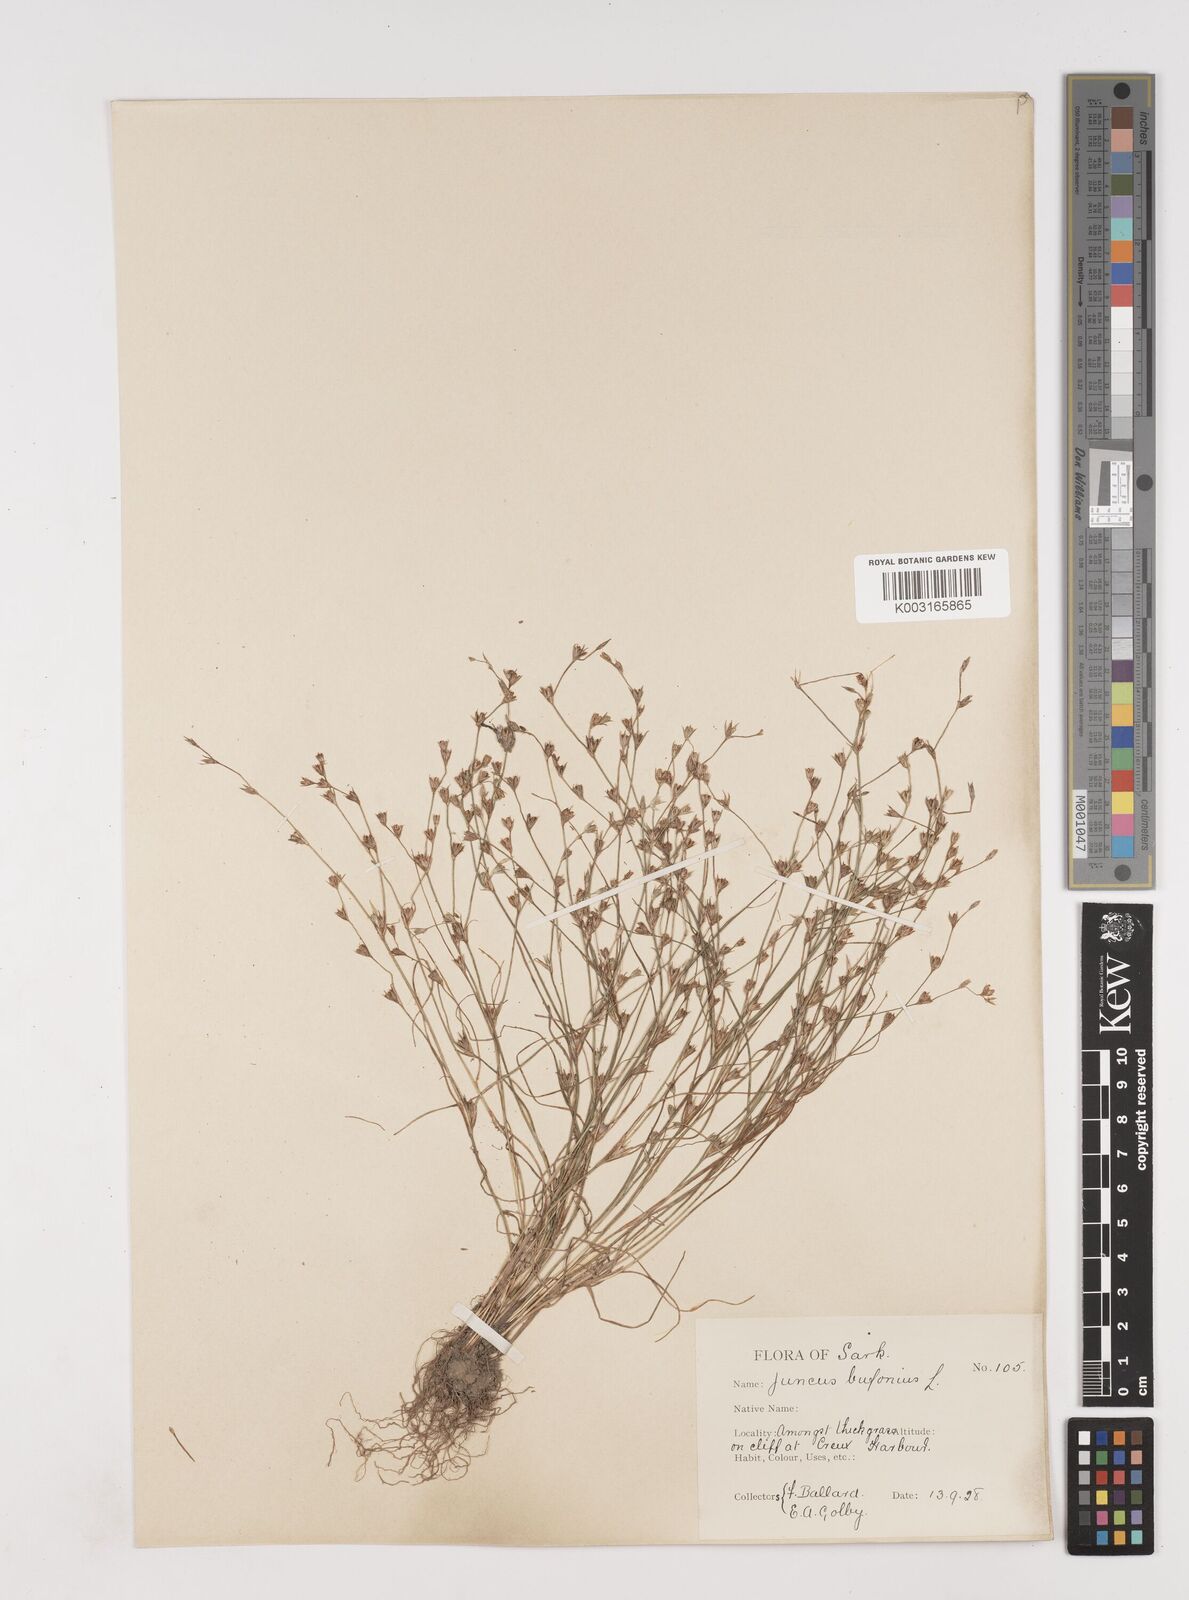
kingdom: Plantae
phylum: Tracheophyta
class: Liliopsida
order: Poales
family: Juncaceae
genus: Juncus
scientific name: Juncus bufonius
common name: Toad rush
